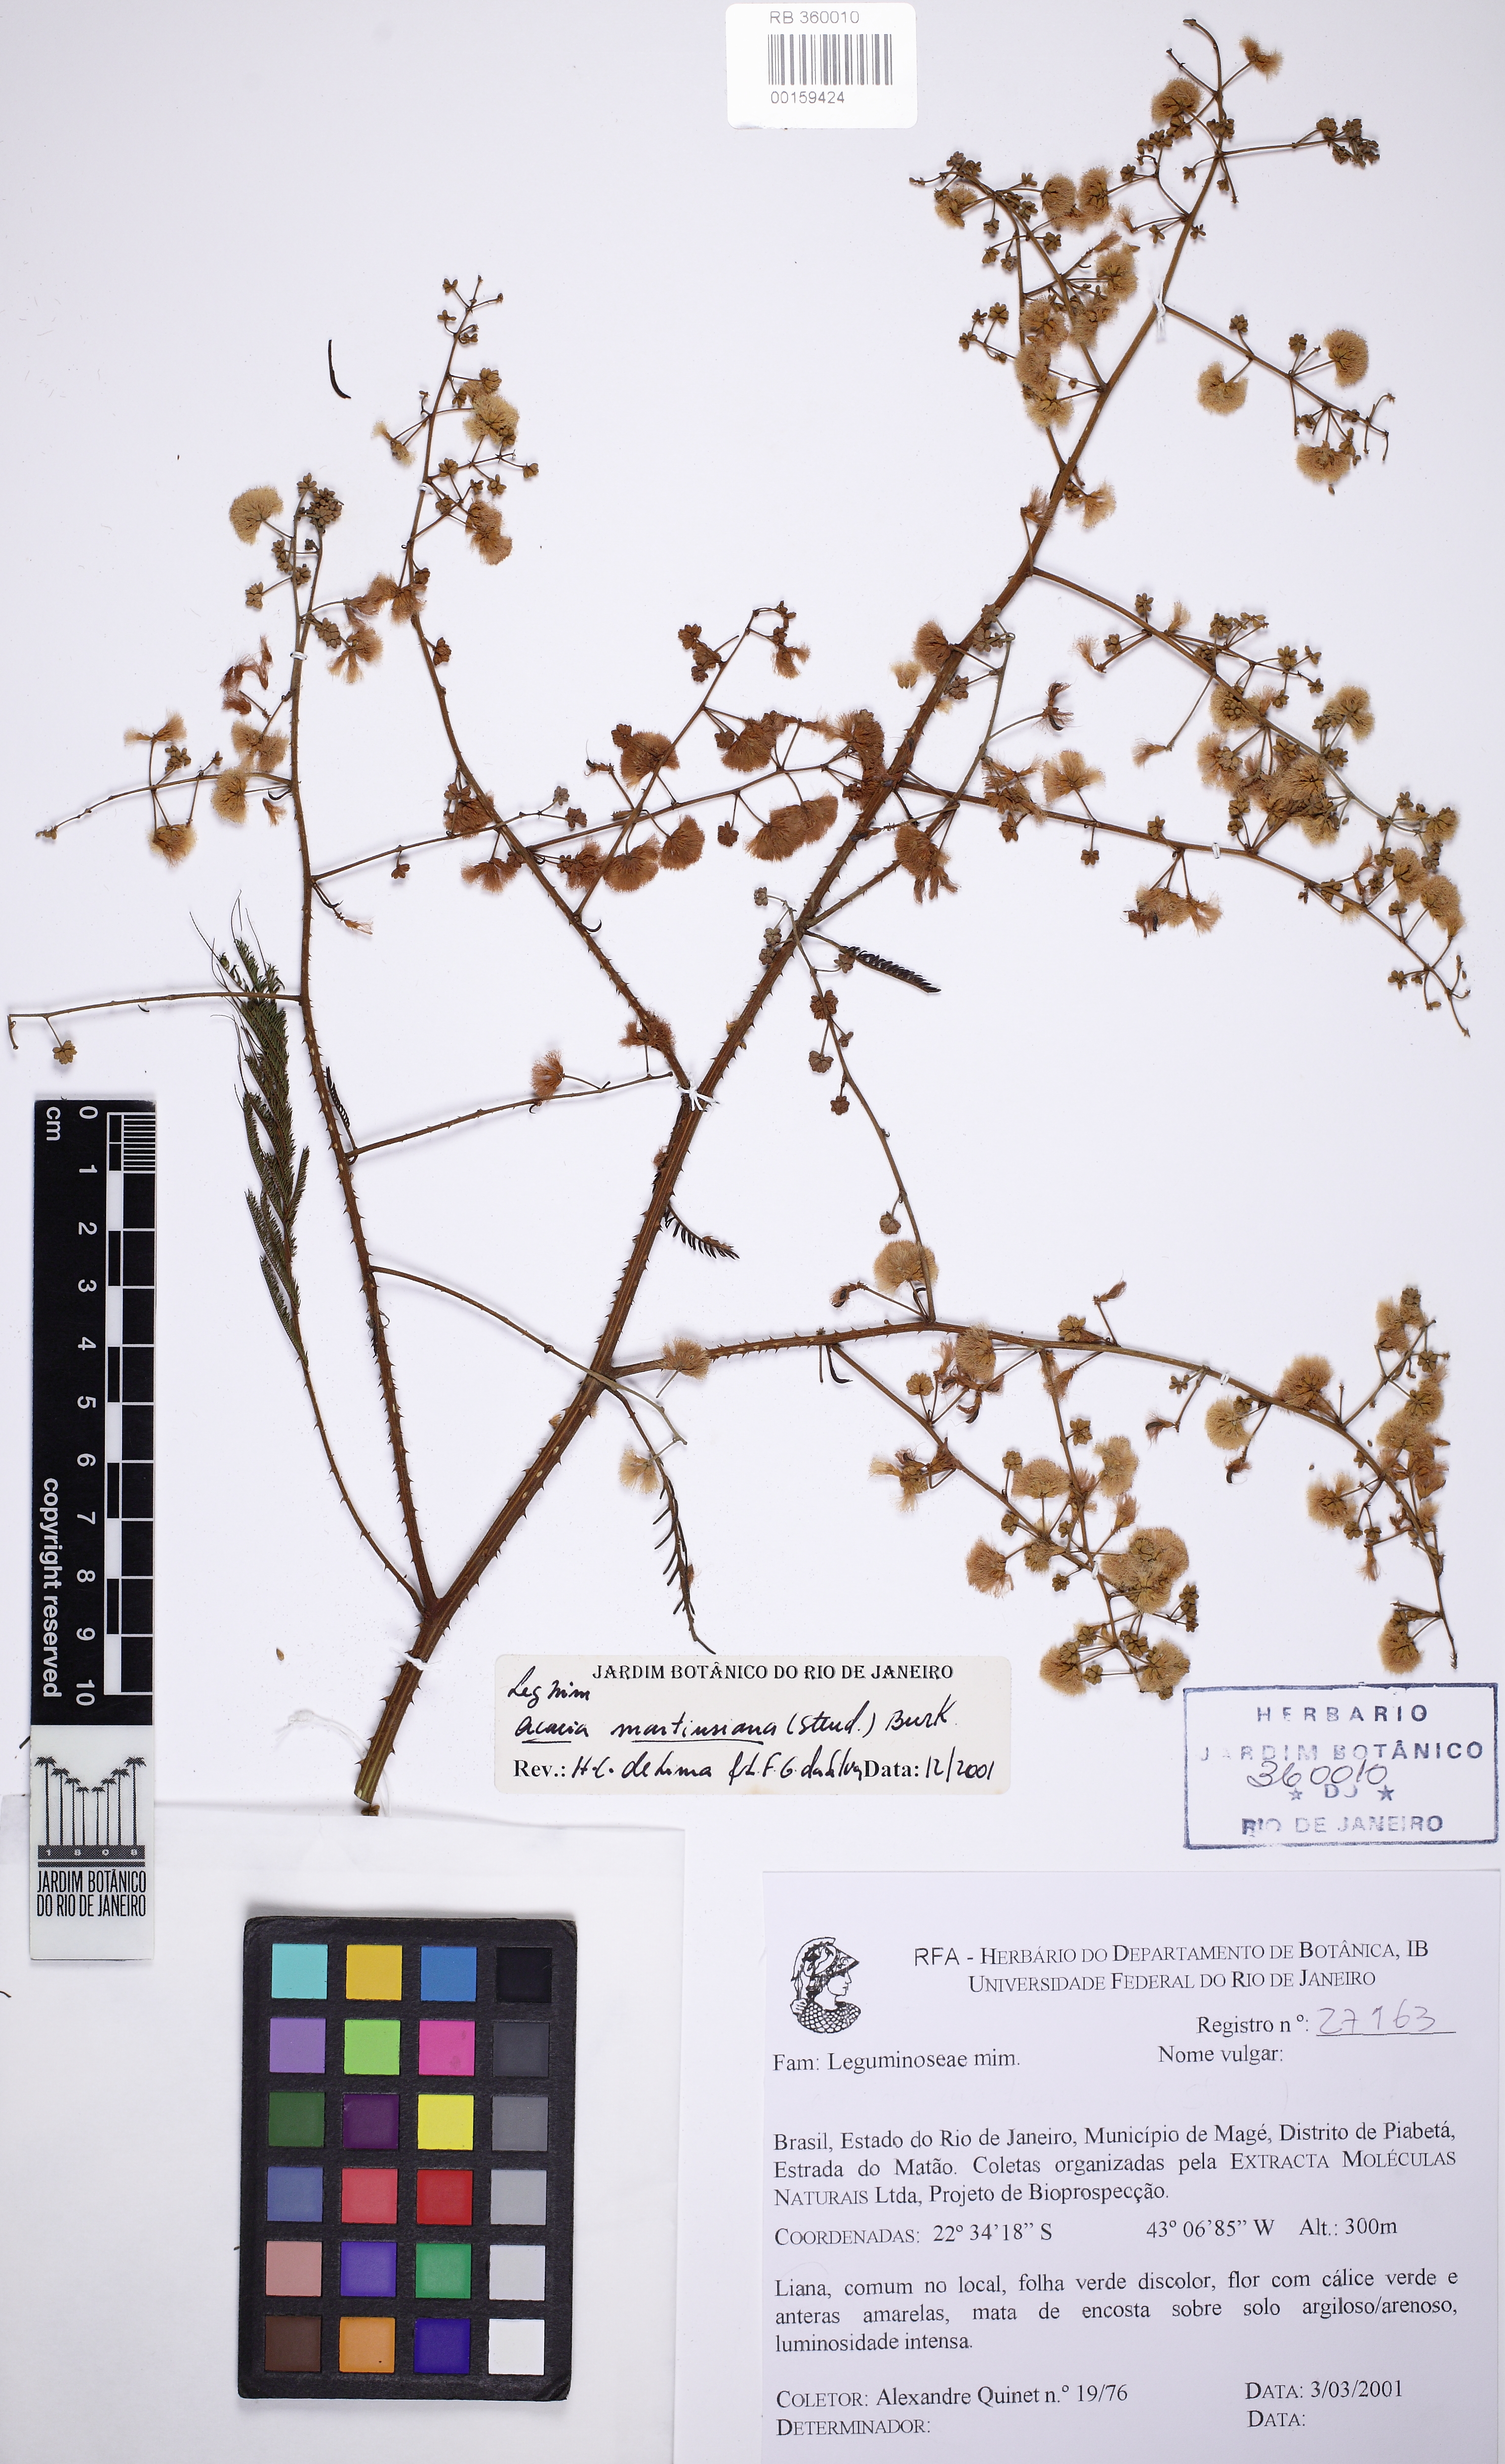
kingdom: Plantae
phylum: Tracheophyta
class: Magnoliopsida
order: Fabales
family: Fabaceae
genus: Senegalia
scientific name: Senegalia hatschbachii
